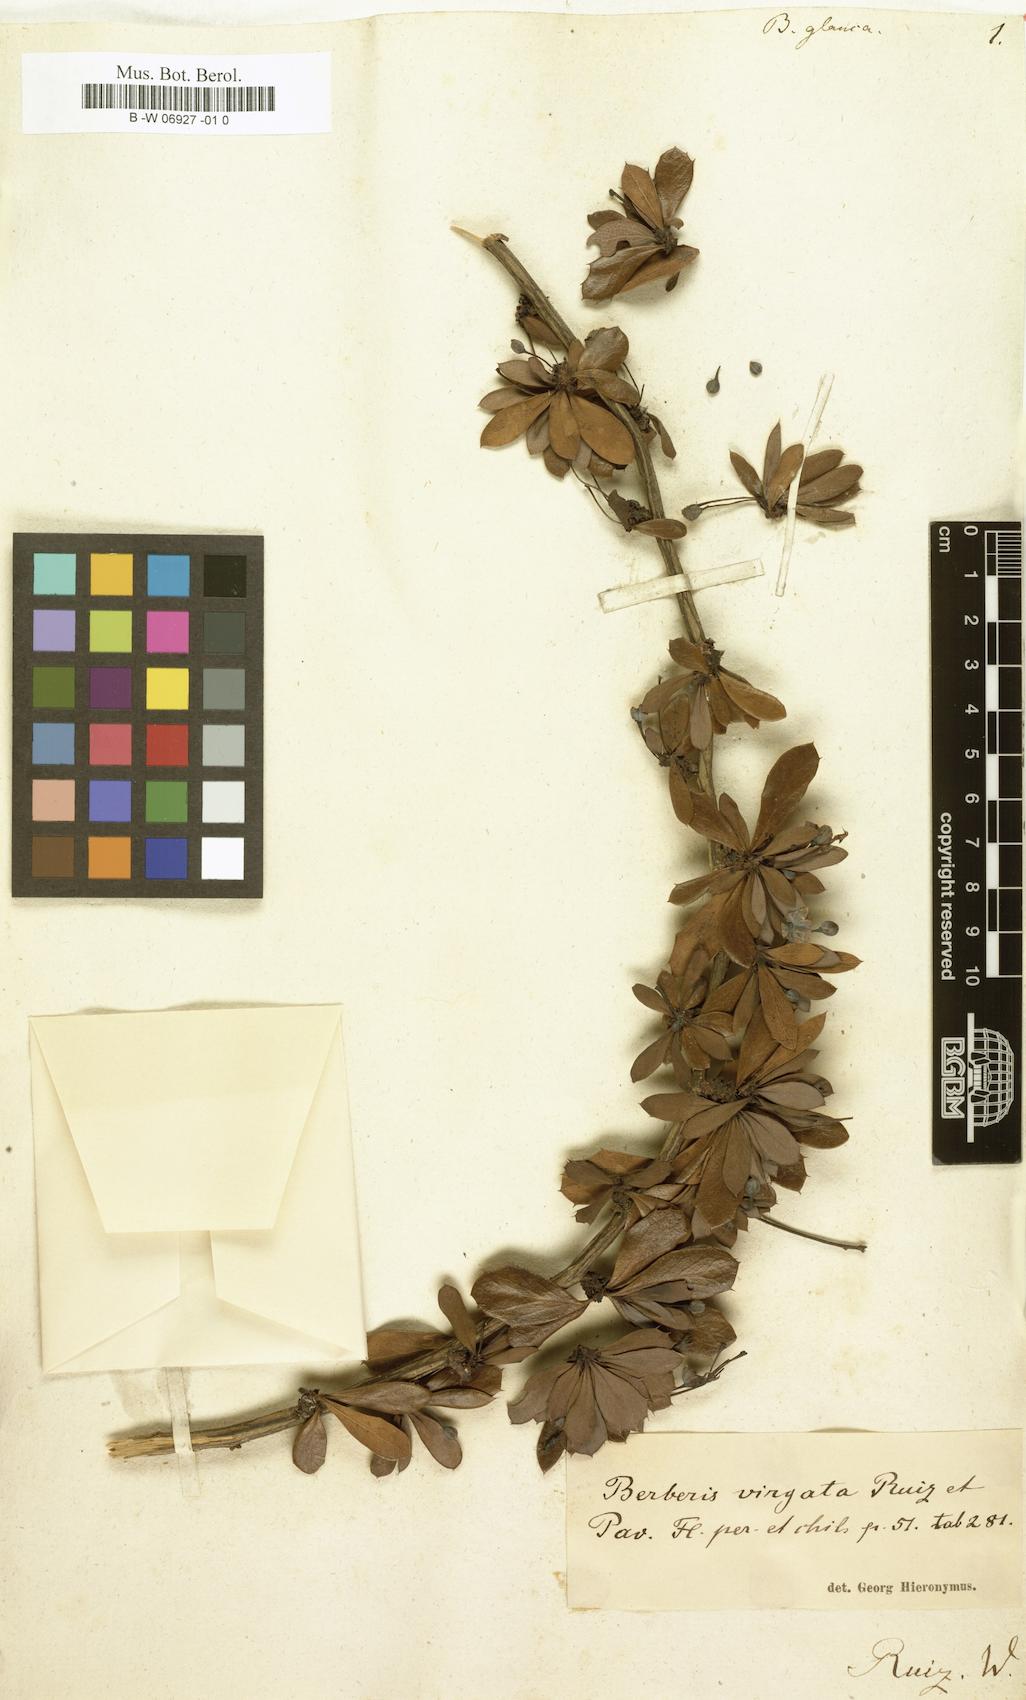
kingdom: Plantae
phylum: Tracheophyta
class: Magnoliopsida
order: Ranunculales
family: Berberidaceae
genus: Berberis
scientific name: Berberis lutea
